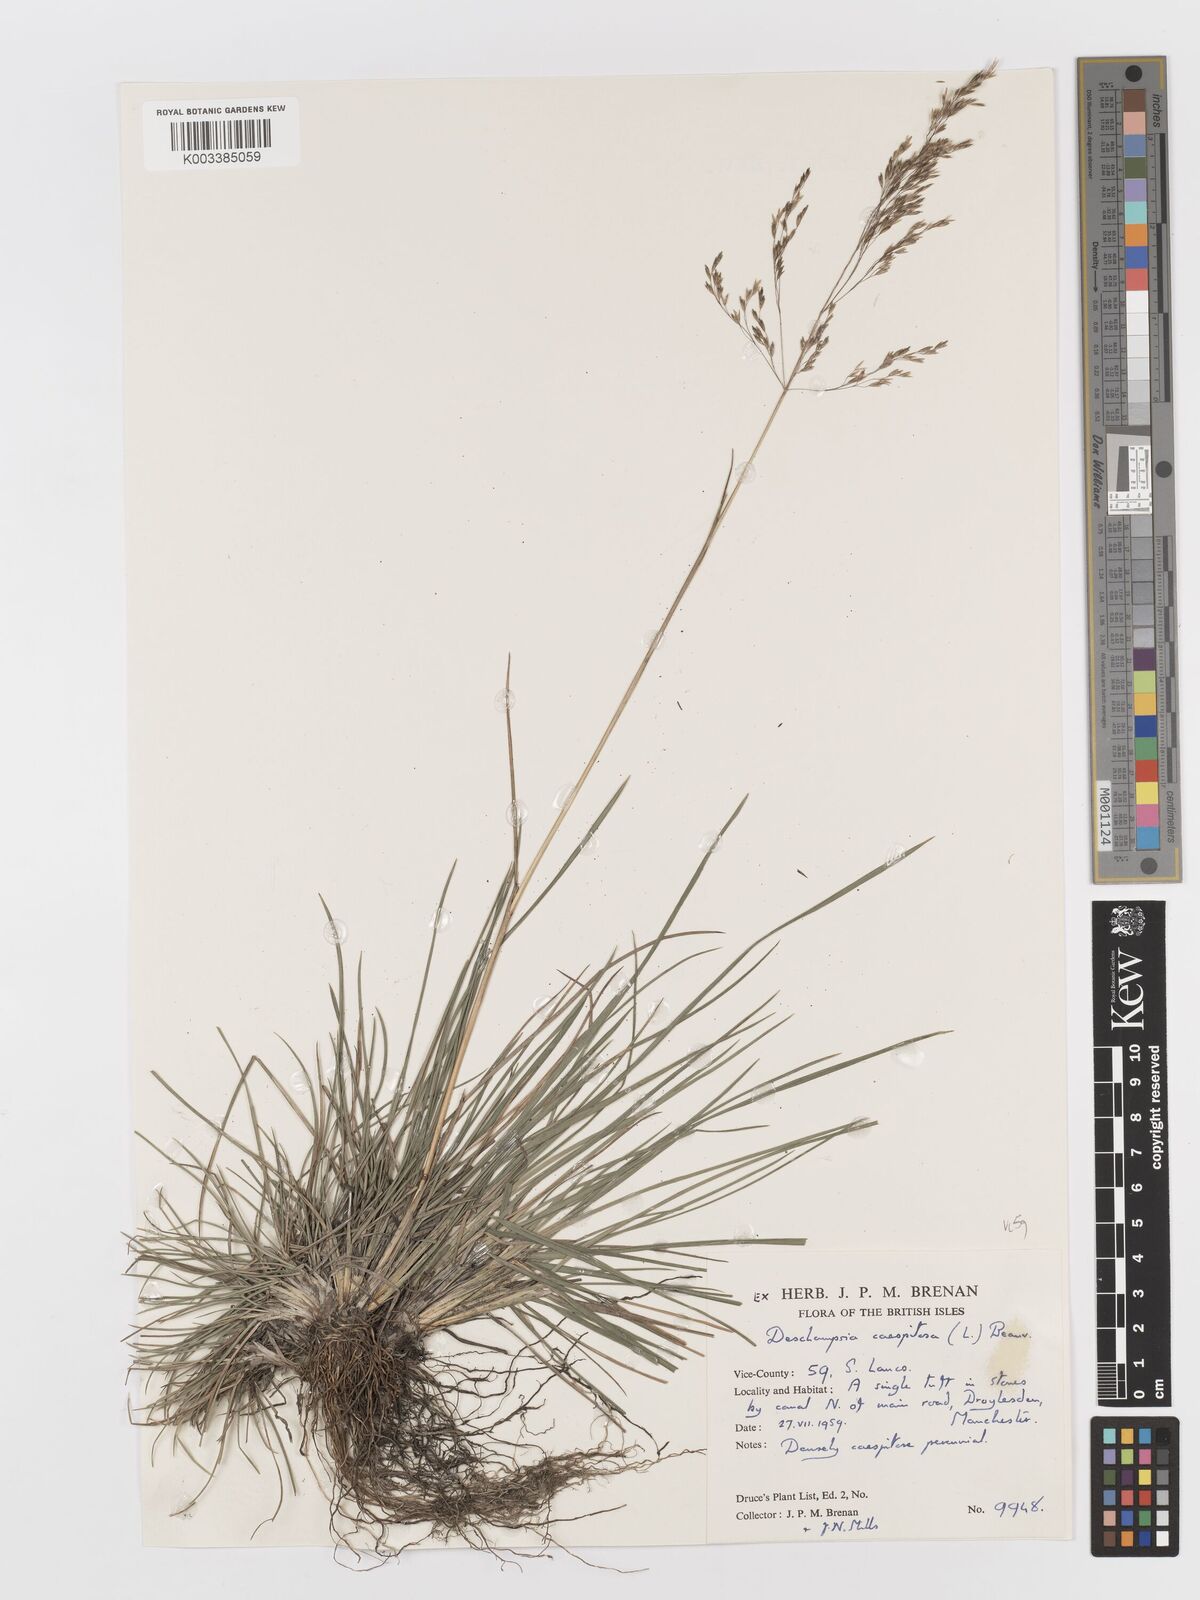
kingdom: Plantae
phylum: Tracheophyta
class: Liliopsida
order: Poales
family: Poaceae
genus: Deschampsia
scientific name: Deschampsia cespitosa
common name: Tufted hair-grass
